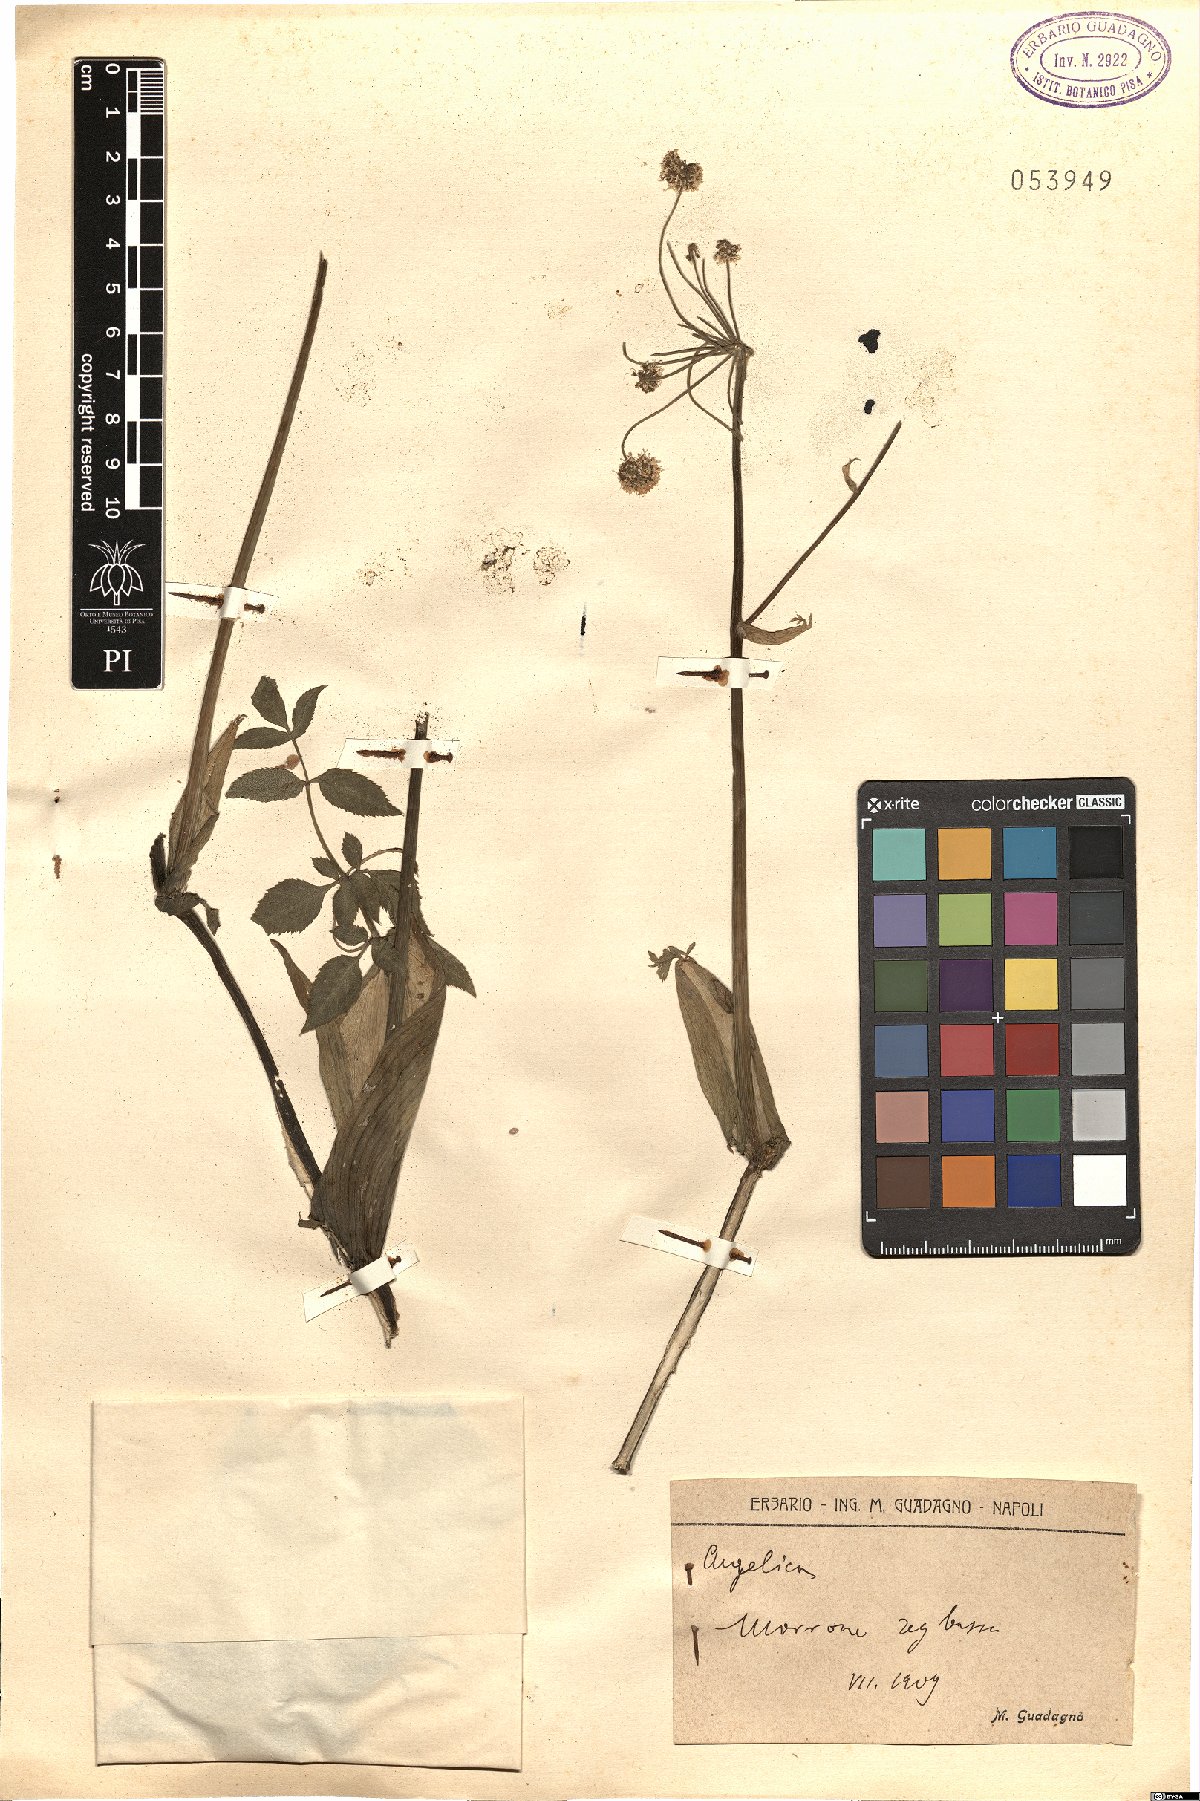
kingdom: Plantae
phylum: Tracheophyta
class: Magnoliopsida
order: Apiales
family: Apiaceae
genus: Angelica
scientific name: Angelica
